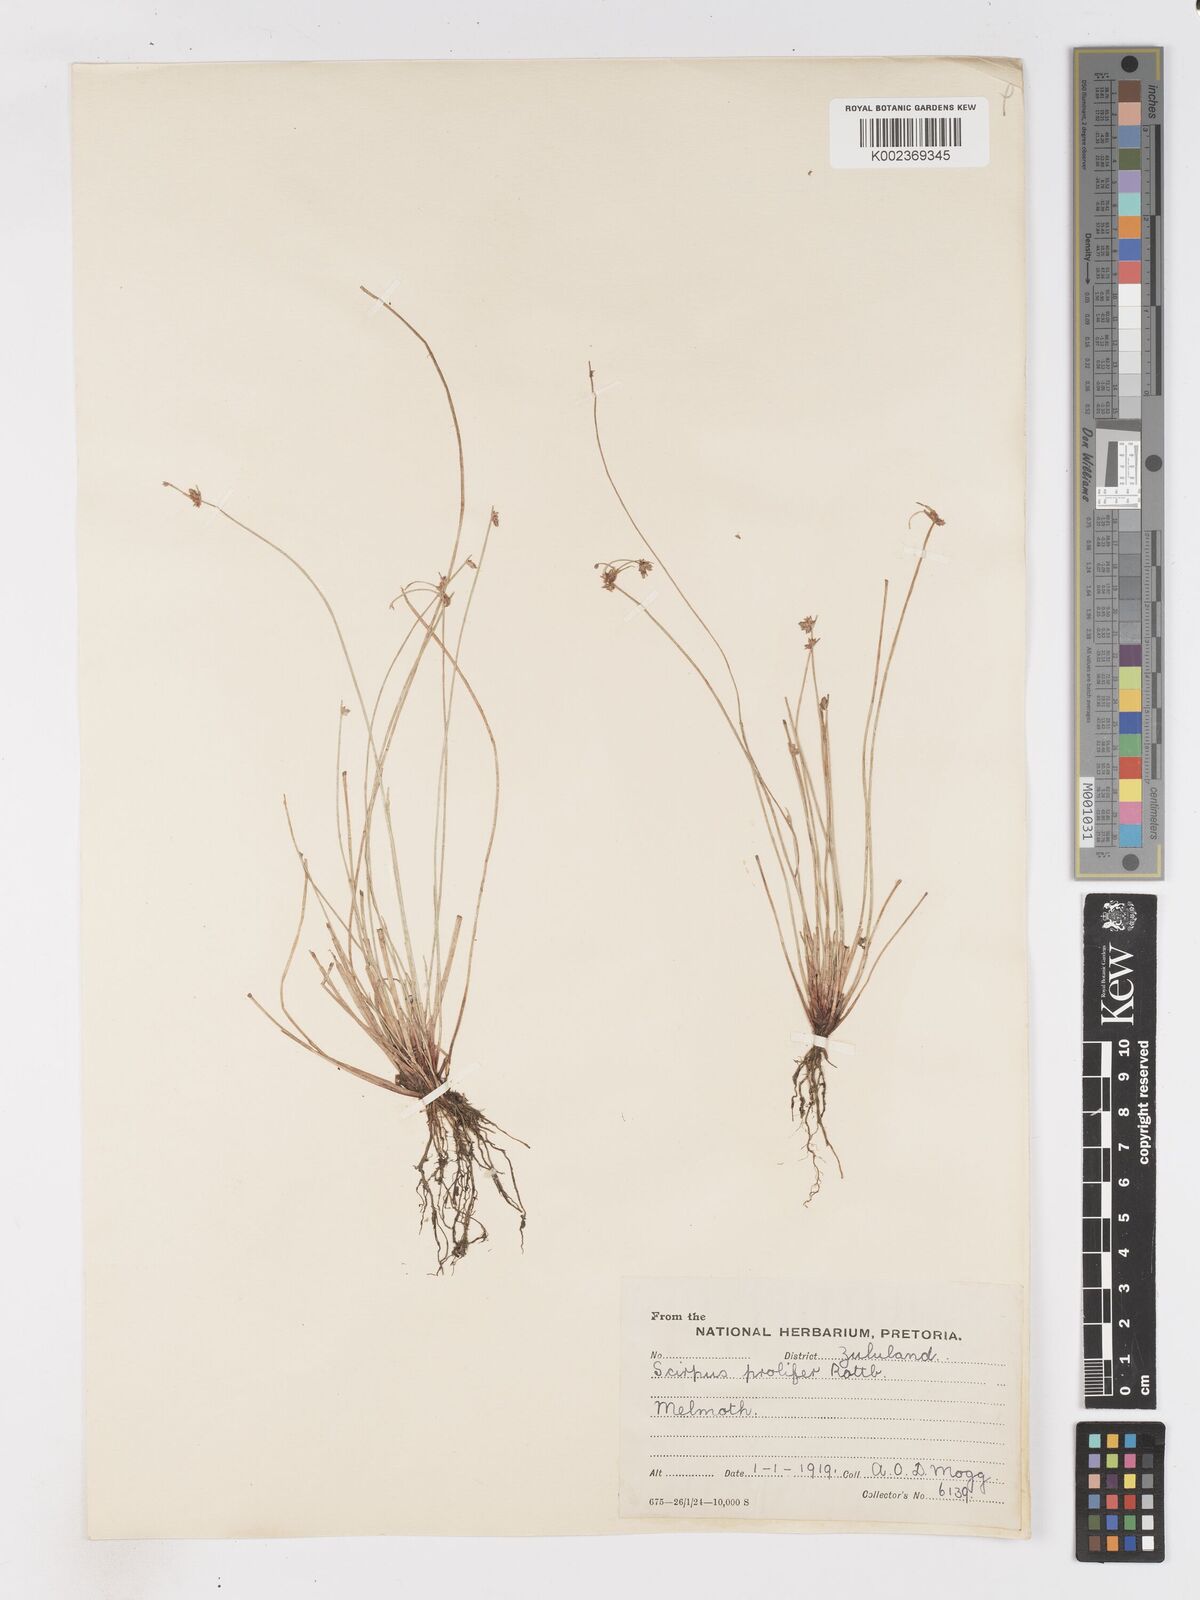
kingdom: Plantae
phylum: Tracheophyta
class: Liliopsida
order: Poales
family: Cyperaceae
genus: Isolepis
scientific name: Isolepis prolifera
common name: Proliferating bulrush
